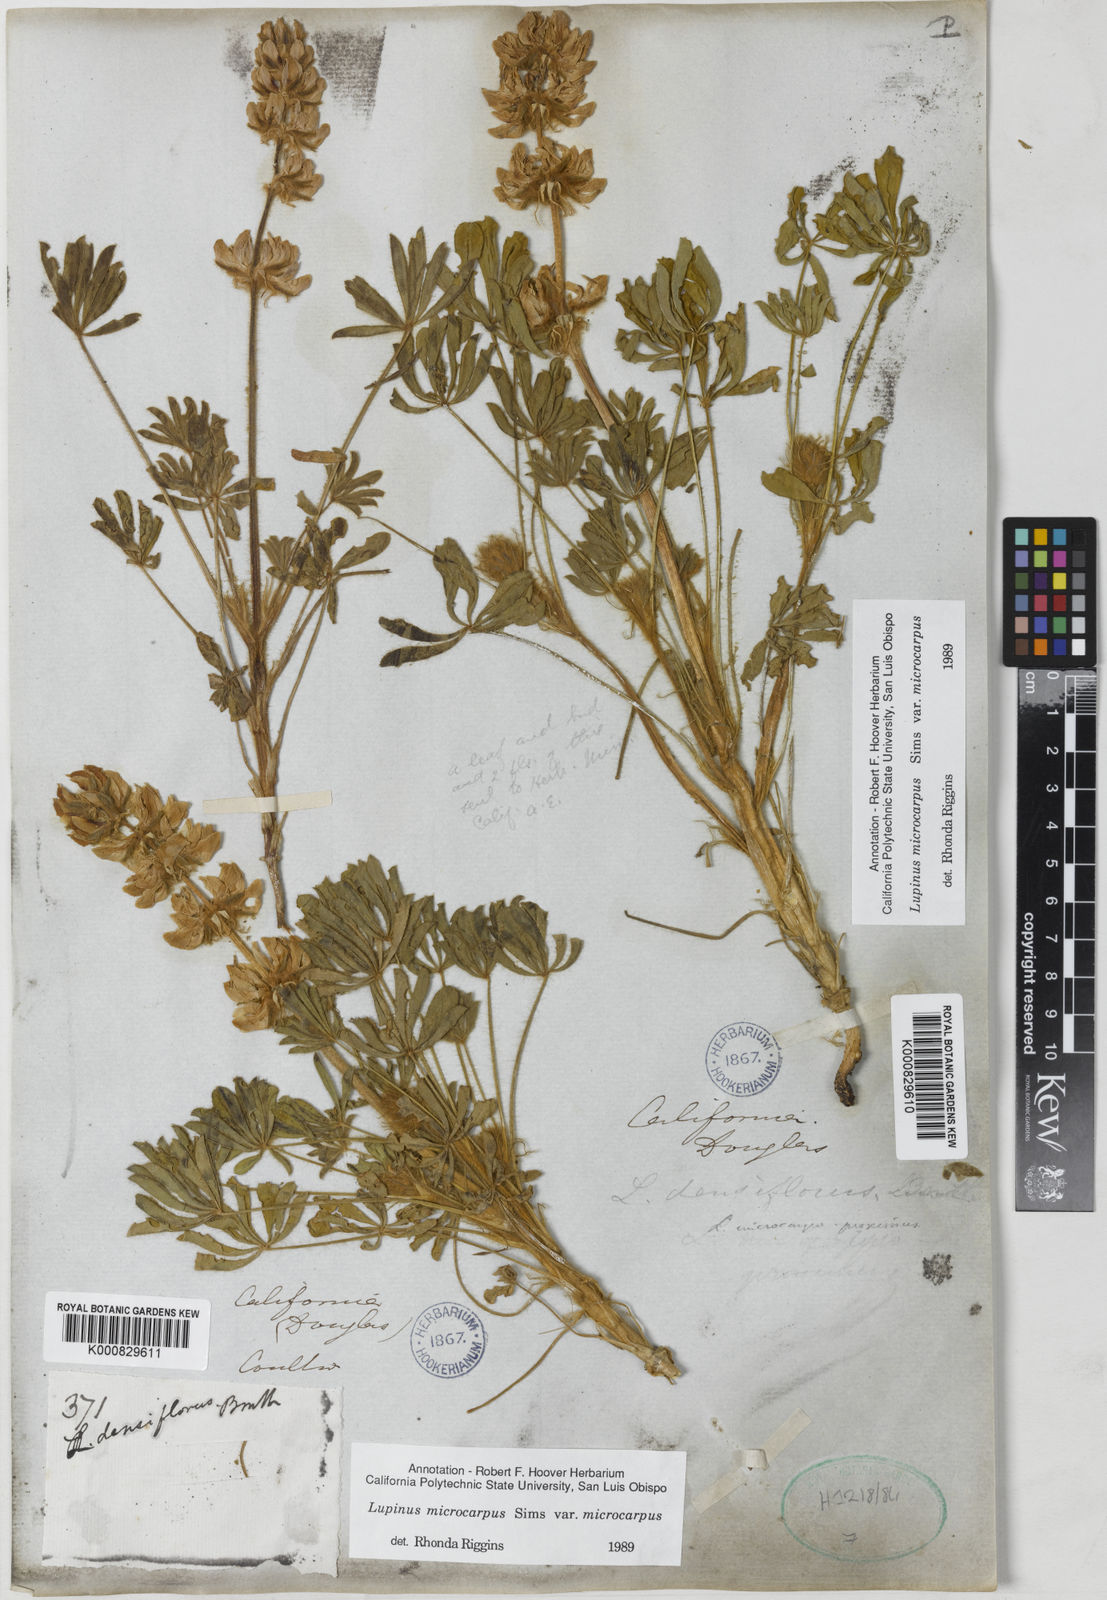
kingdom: Plantae
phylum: Tracheophyta
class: Magnoliopsida
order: Fabales
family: Fabaceae
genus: Lupinus
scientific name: Lupinus densiflorus
